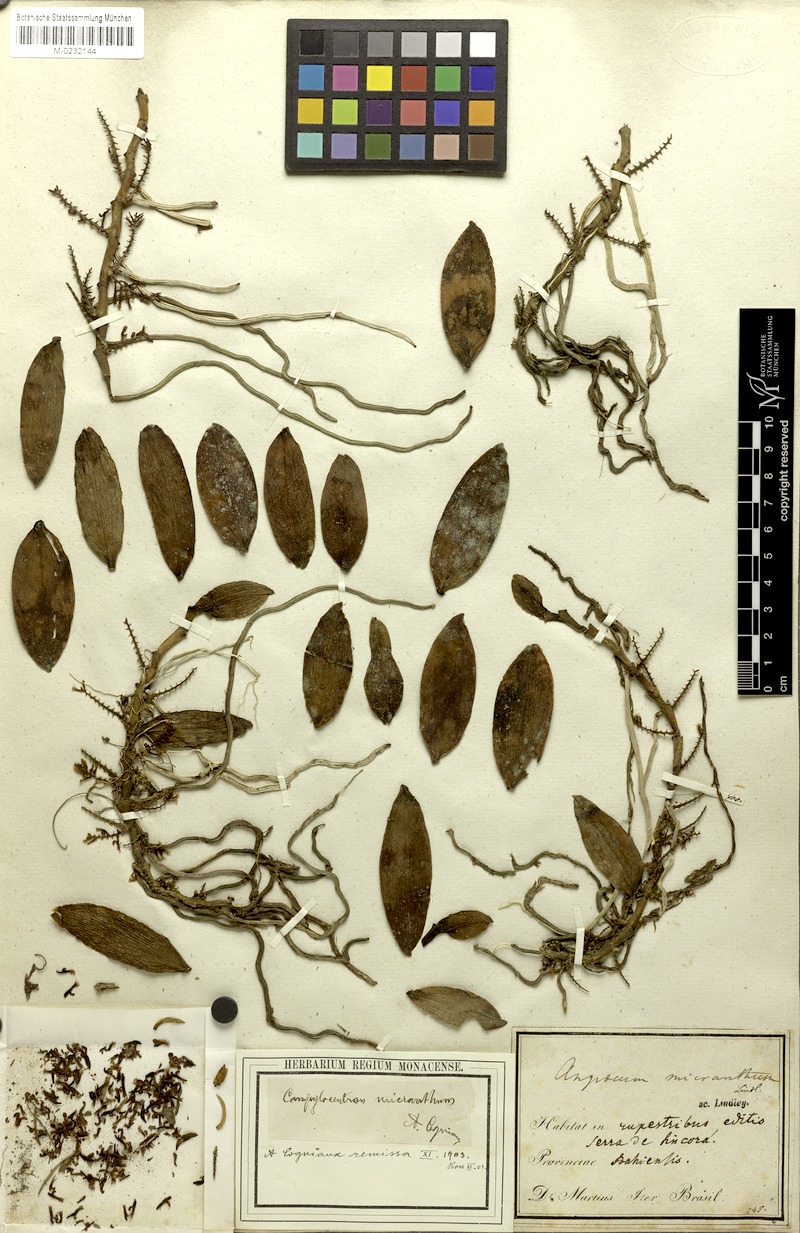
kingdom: Plantae
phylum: Tracheophyta
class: Liliopsida
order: Asparagales
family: Orchidaceae
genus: Campylocentrum
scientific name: Campylocentrum micranthum
